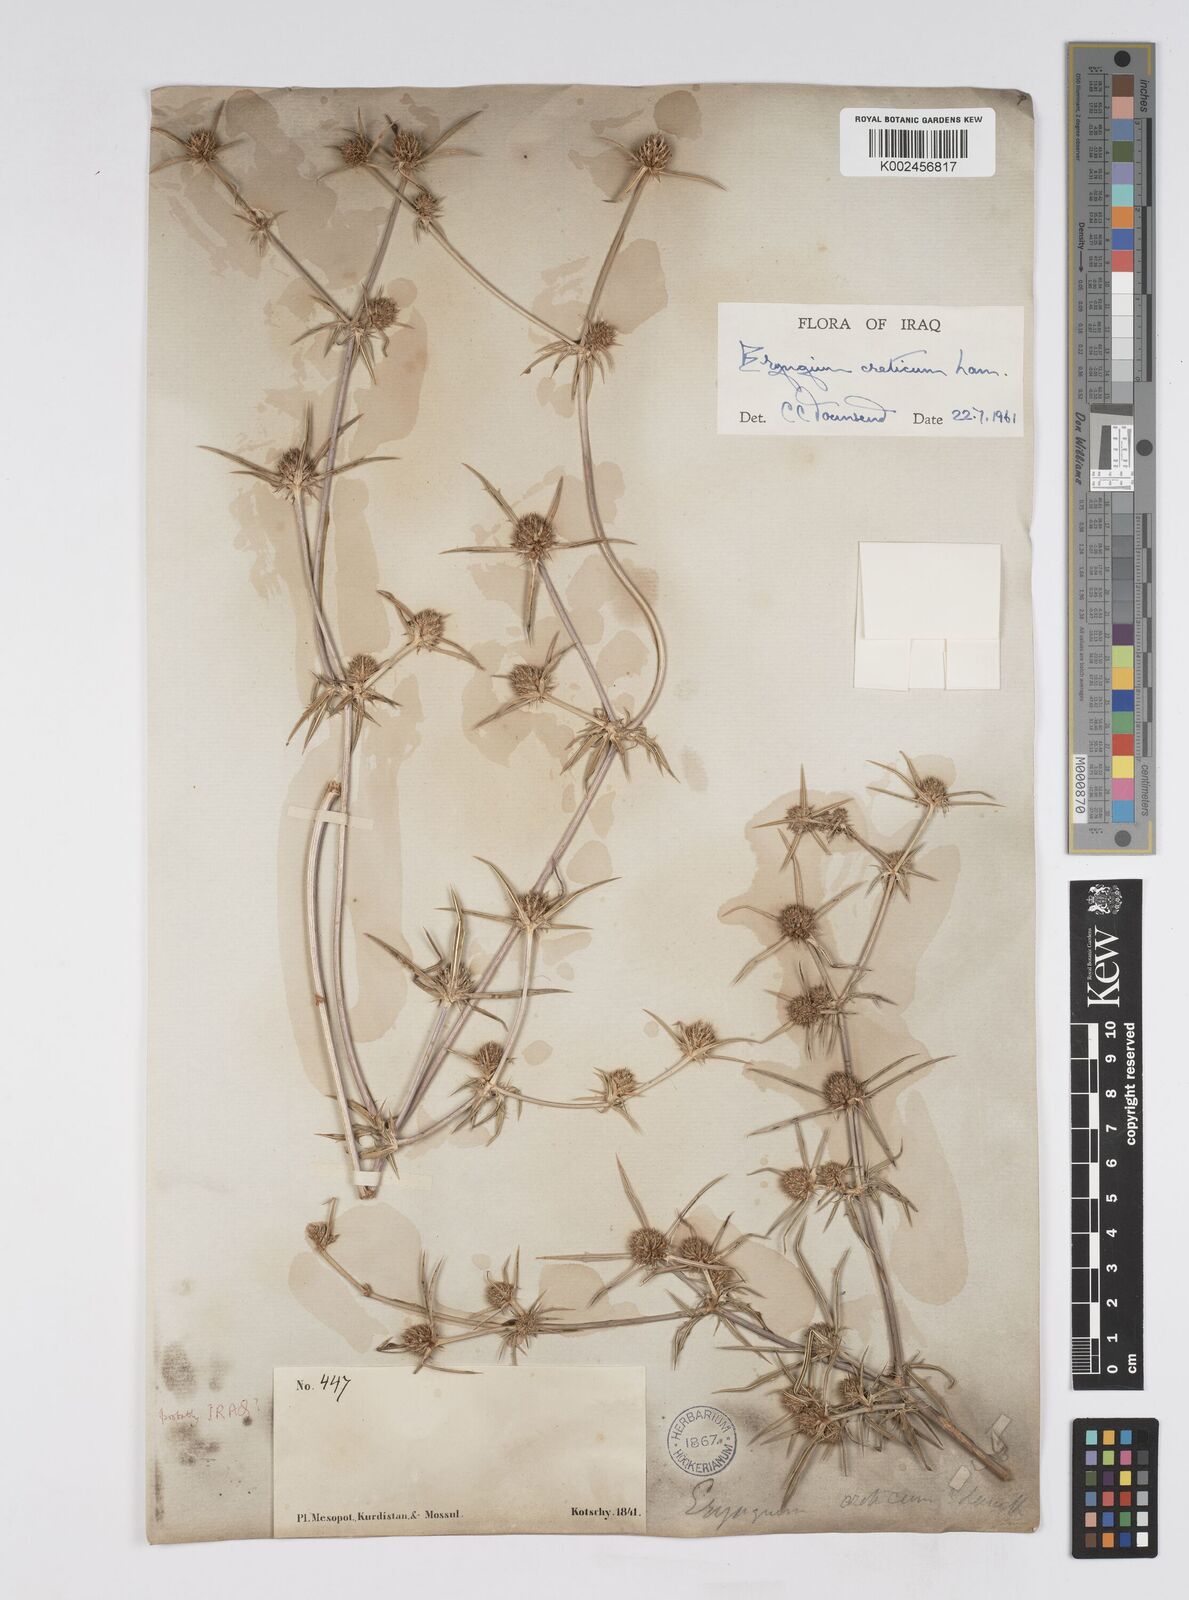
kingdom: Plantae
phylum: Tracheophyta
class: Magnoliopsida
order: Apiales
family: Apiaceae
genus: Eryngium
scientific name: Eryngium creticum
